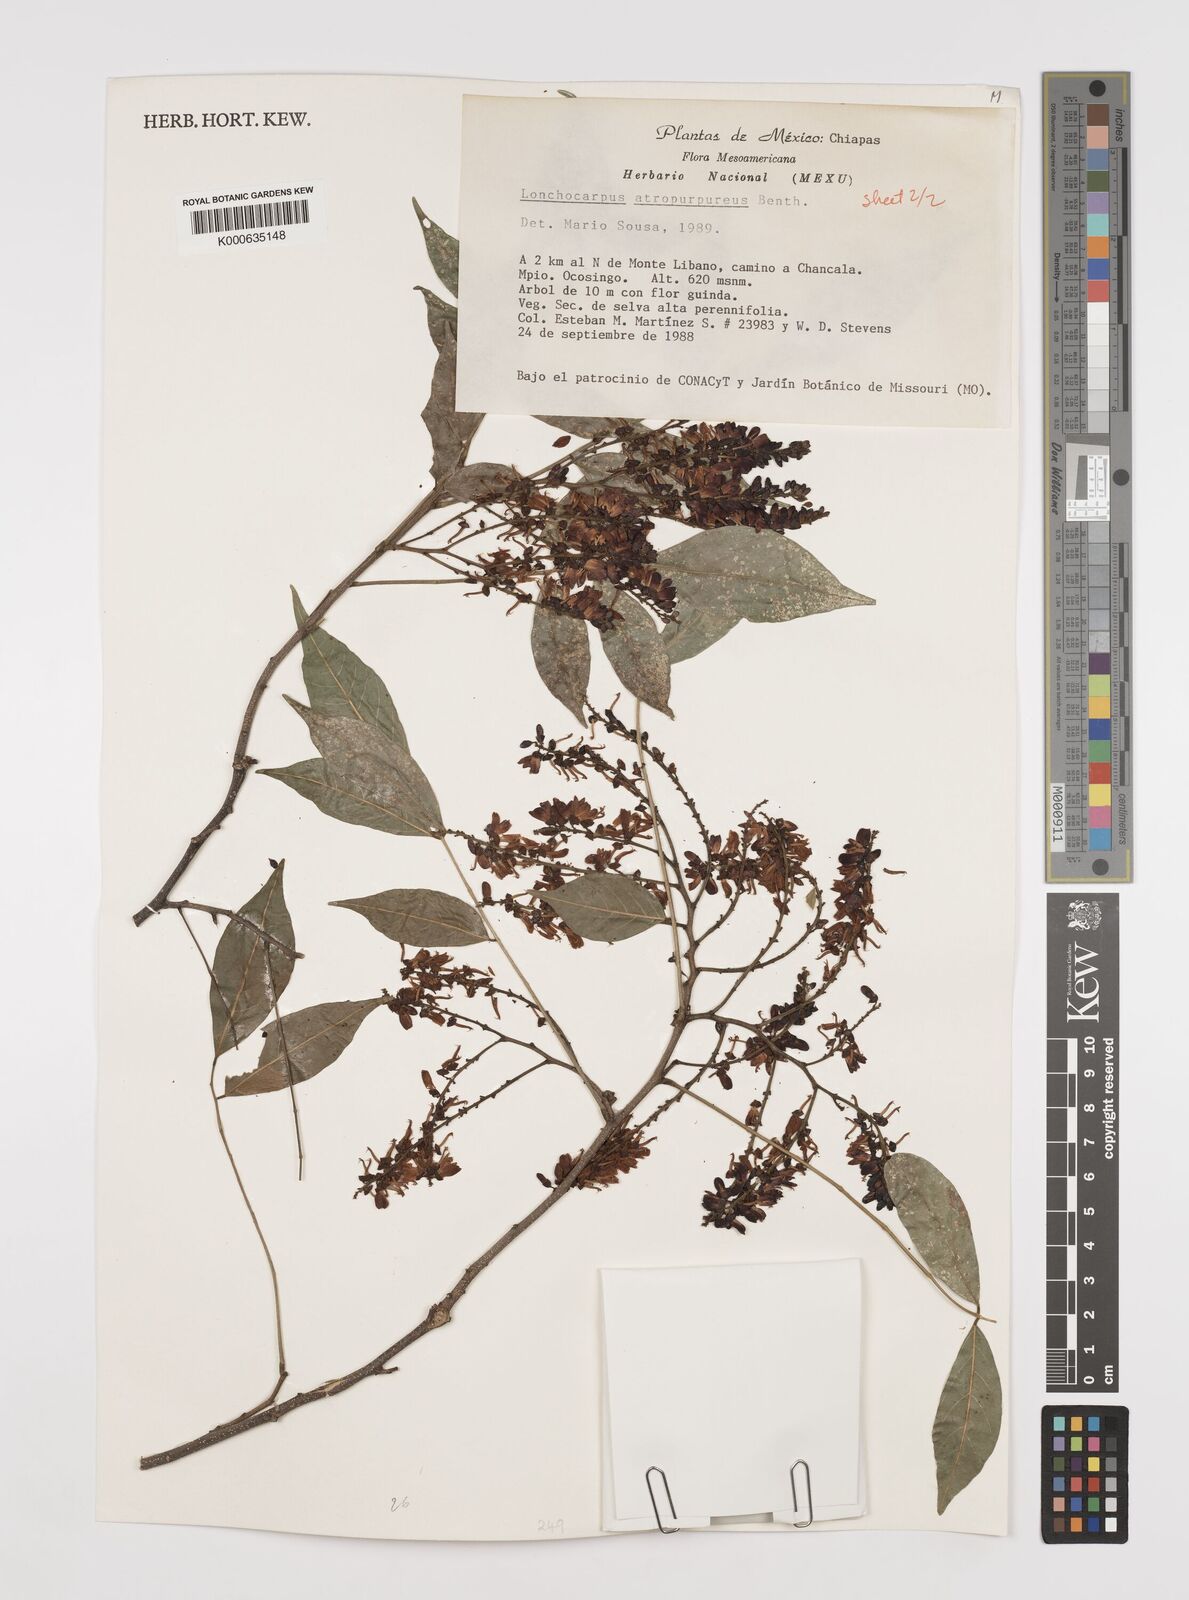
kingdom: Plantae
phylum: Tracheophyta
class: Magnoliopsida
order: Fabales
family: Fabaceae
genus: Lonchocarpus
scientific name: Lonchocarpus atropurpureus
